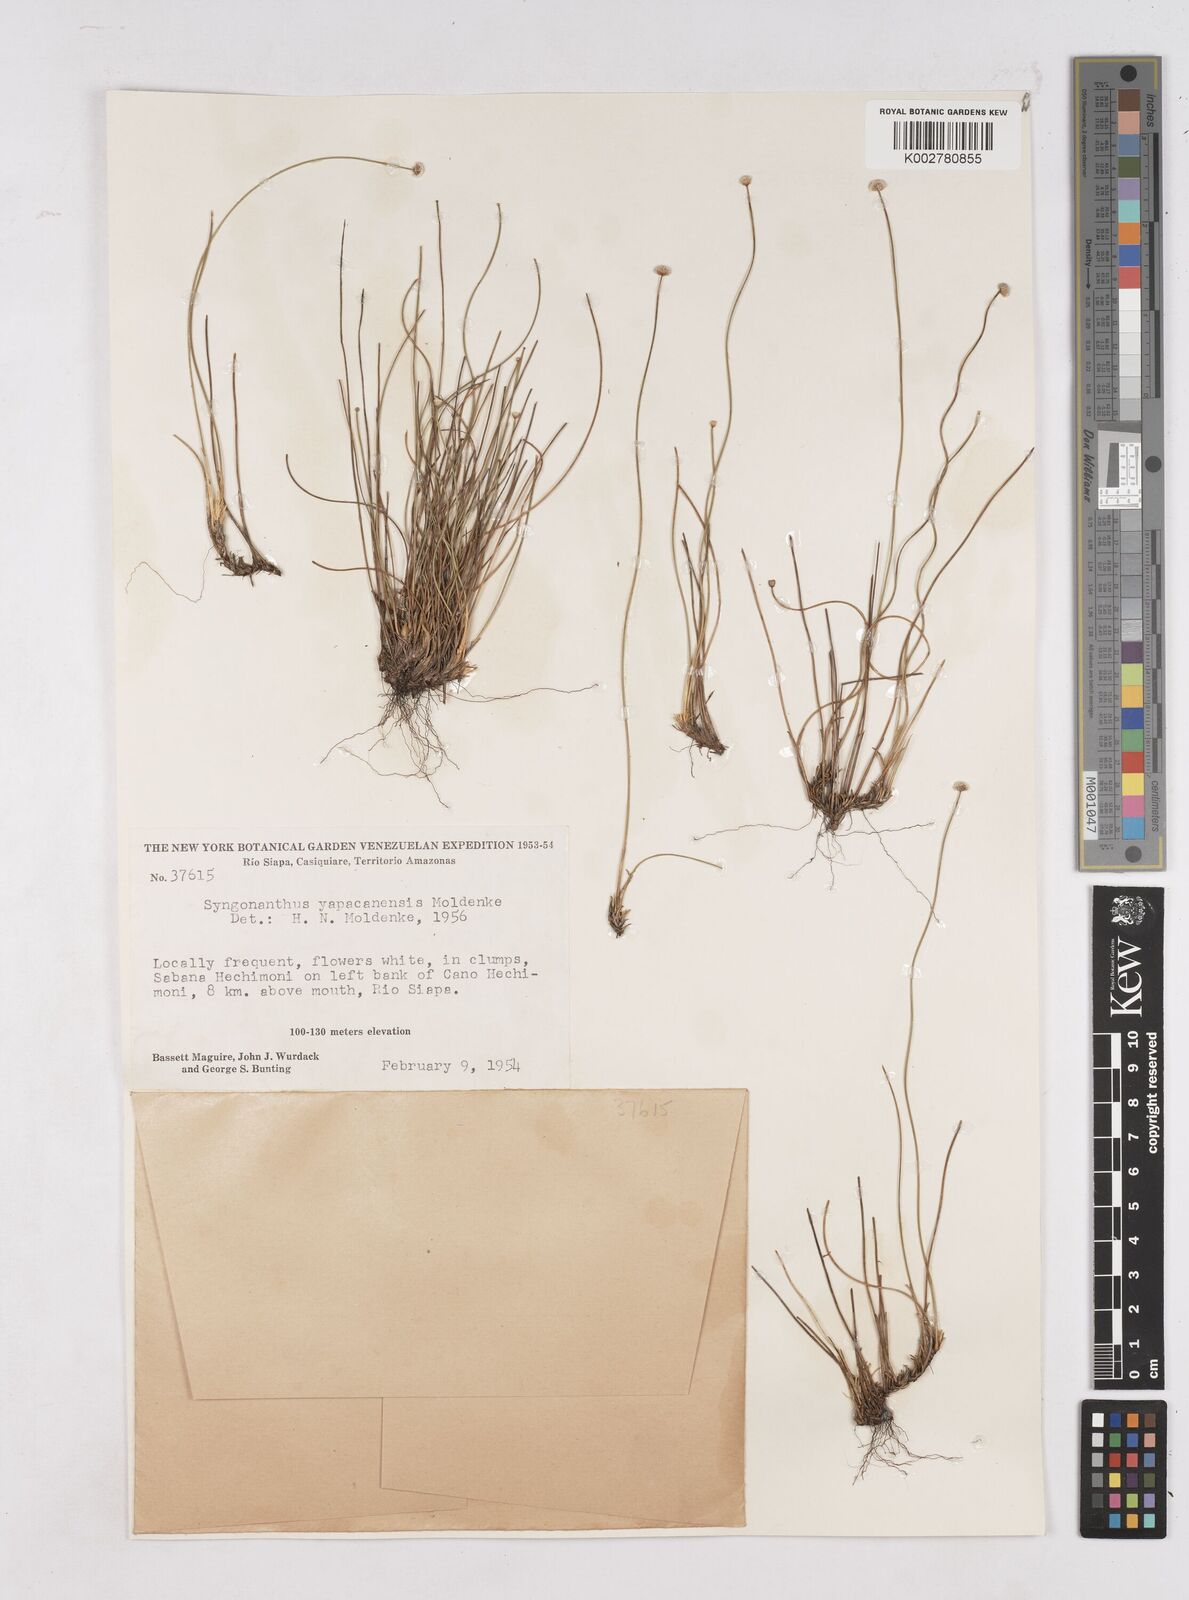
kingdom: Plantae
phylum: Tracheophyta
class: Liliopsida
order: Poales
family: Eriocaulaceae
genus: Paepalanthus
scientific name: Paepalanthus yapacanensis
